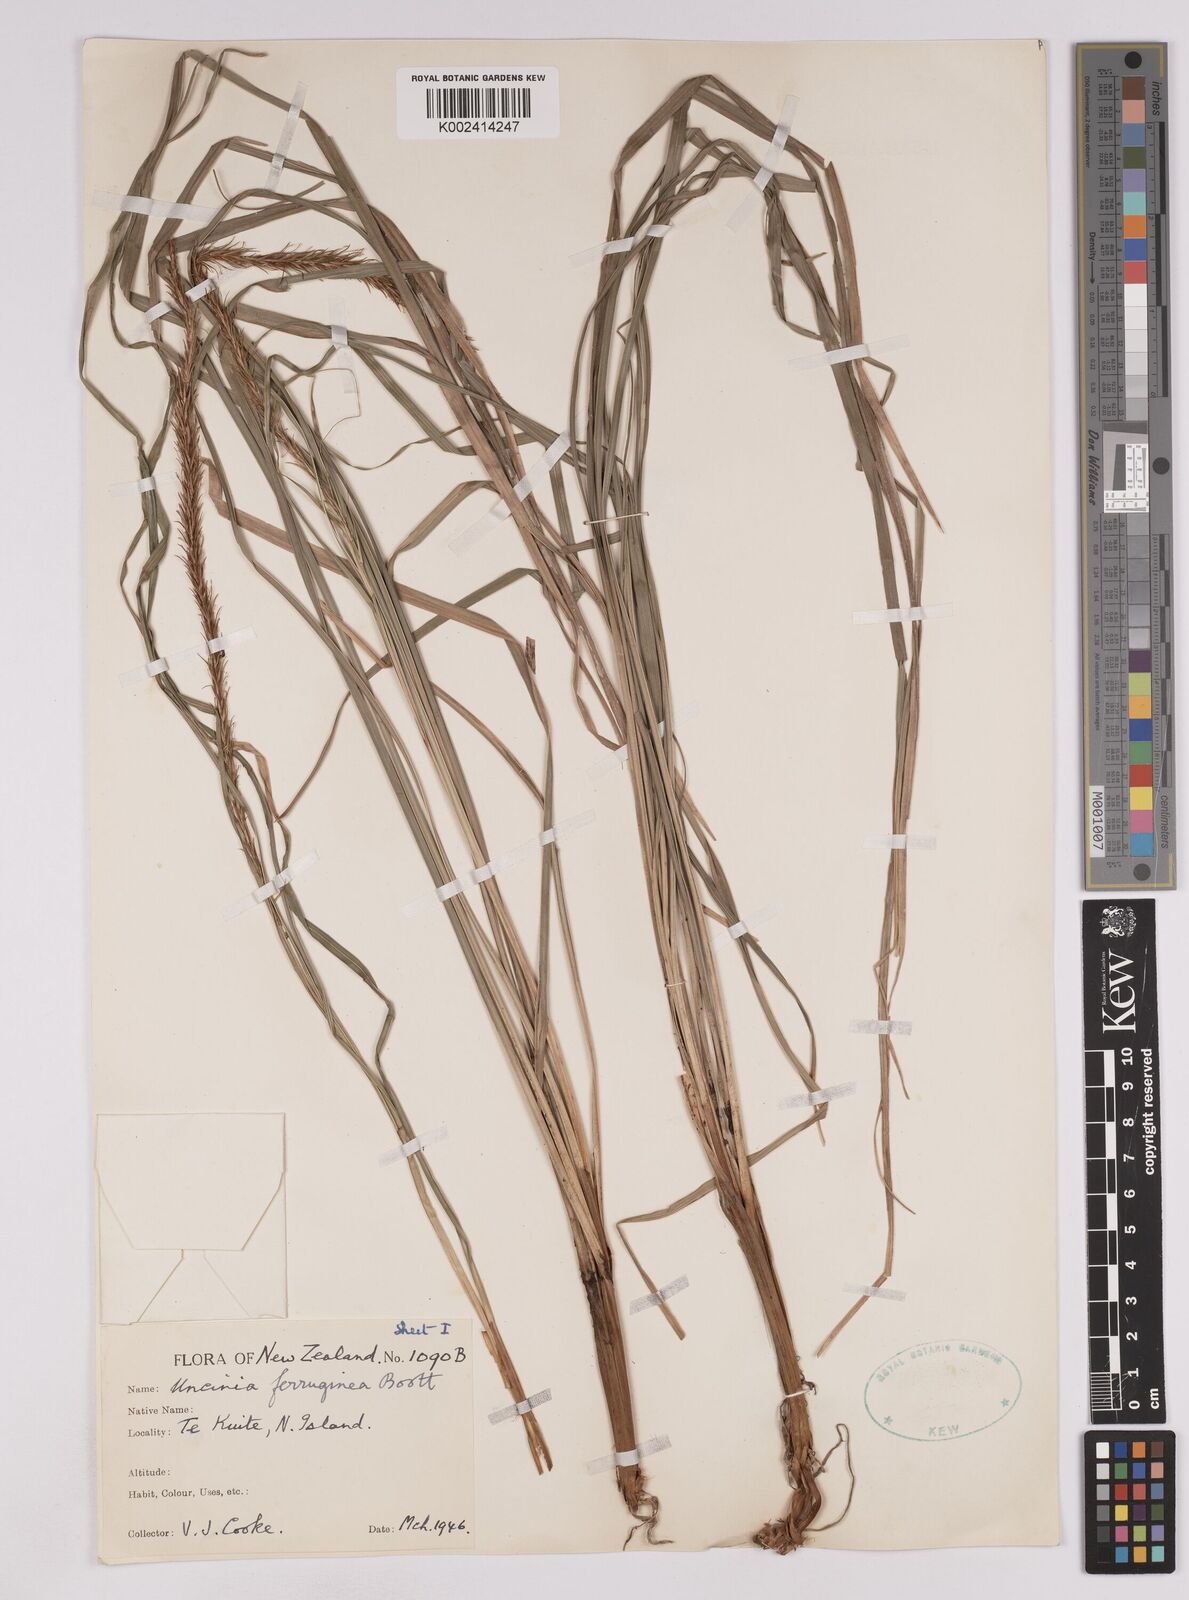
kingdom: Plantae
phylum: Tracheophyta
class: Liliopsida
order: Poales
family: Cyperaceae
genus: Carex
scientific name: Carex uncinata
